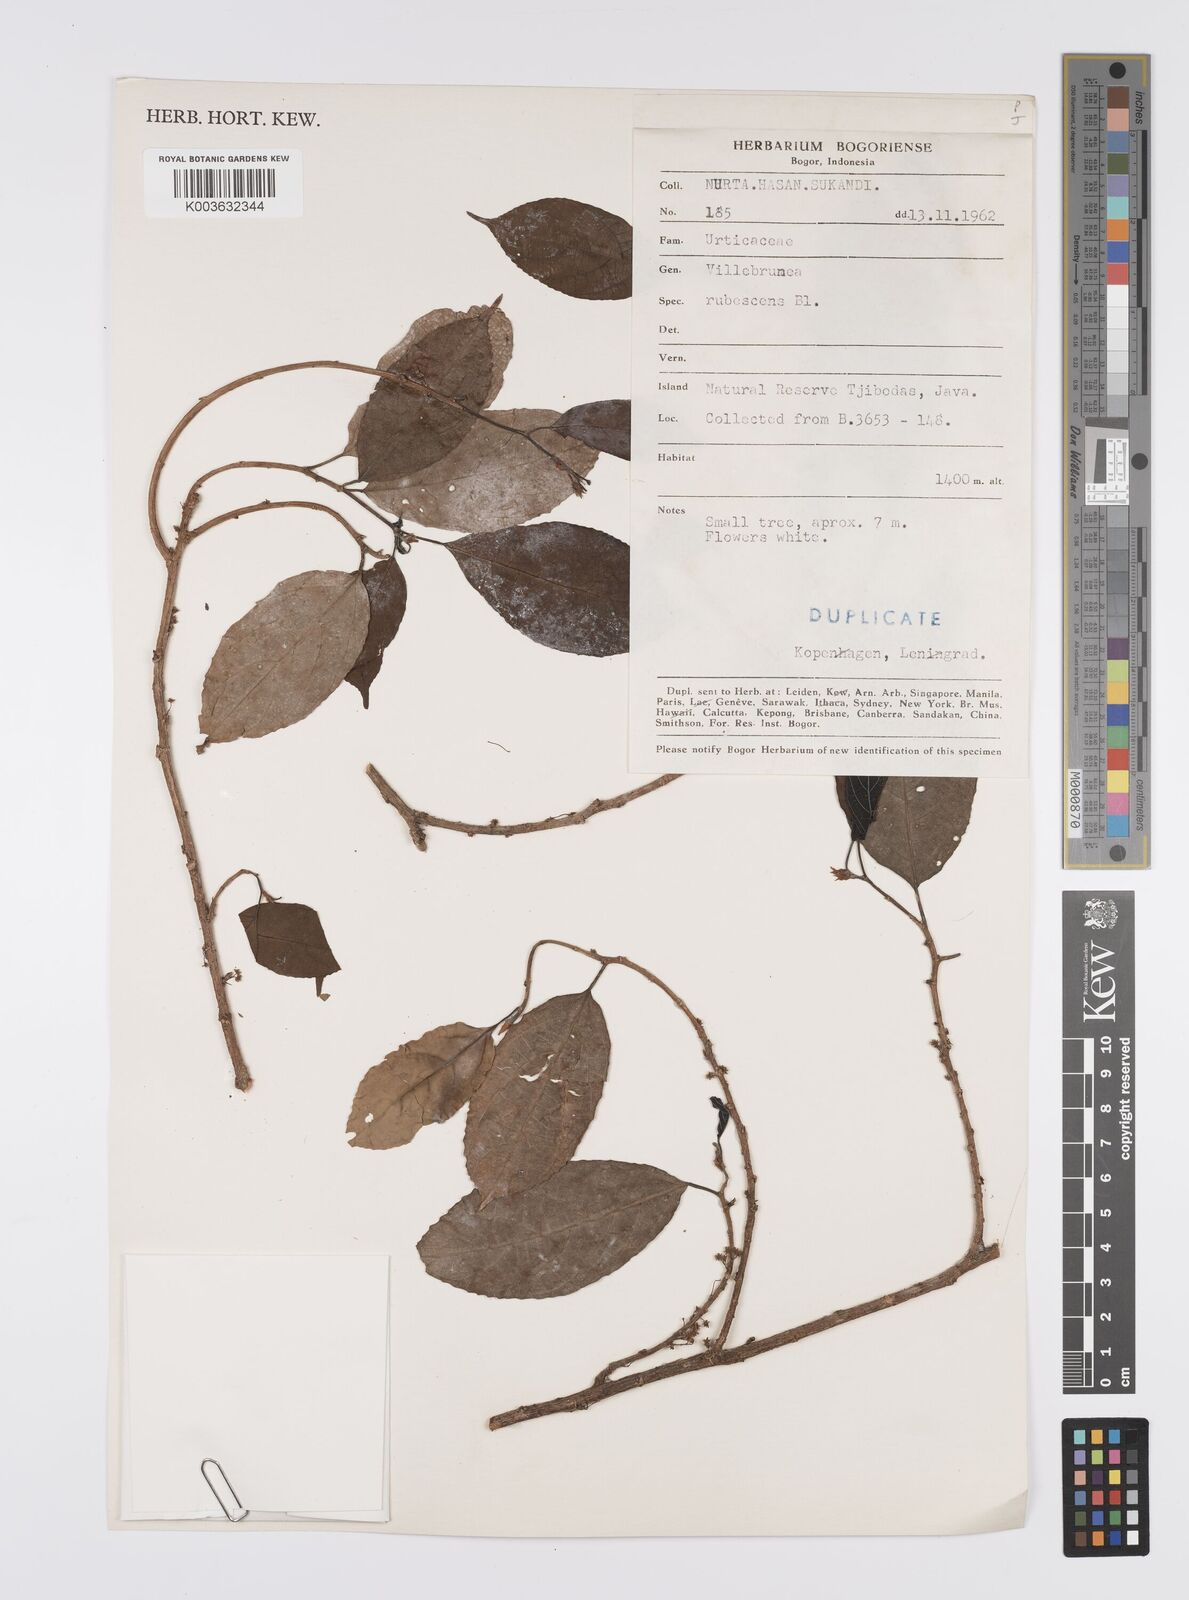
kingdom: Plantae
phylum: Tracheophyta
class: Magnoliopsida
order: Rosales
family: Urticaceae
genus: Oreocnide
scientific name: Oreocnide rubescens
